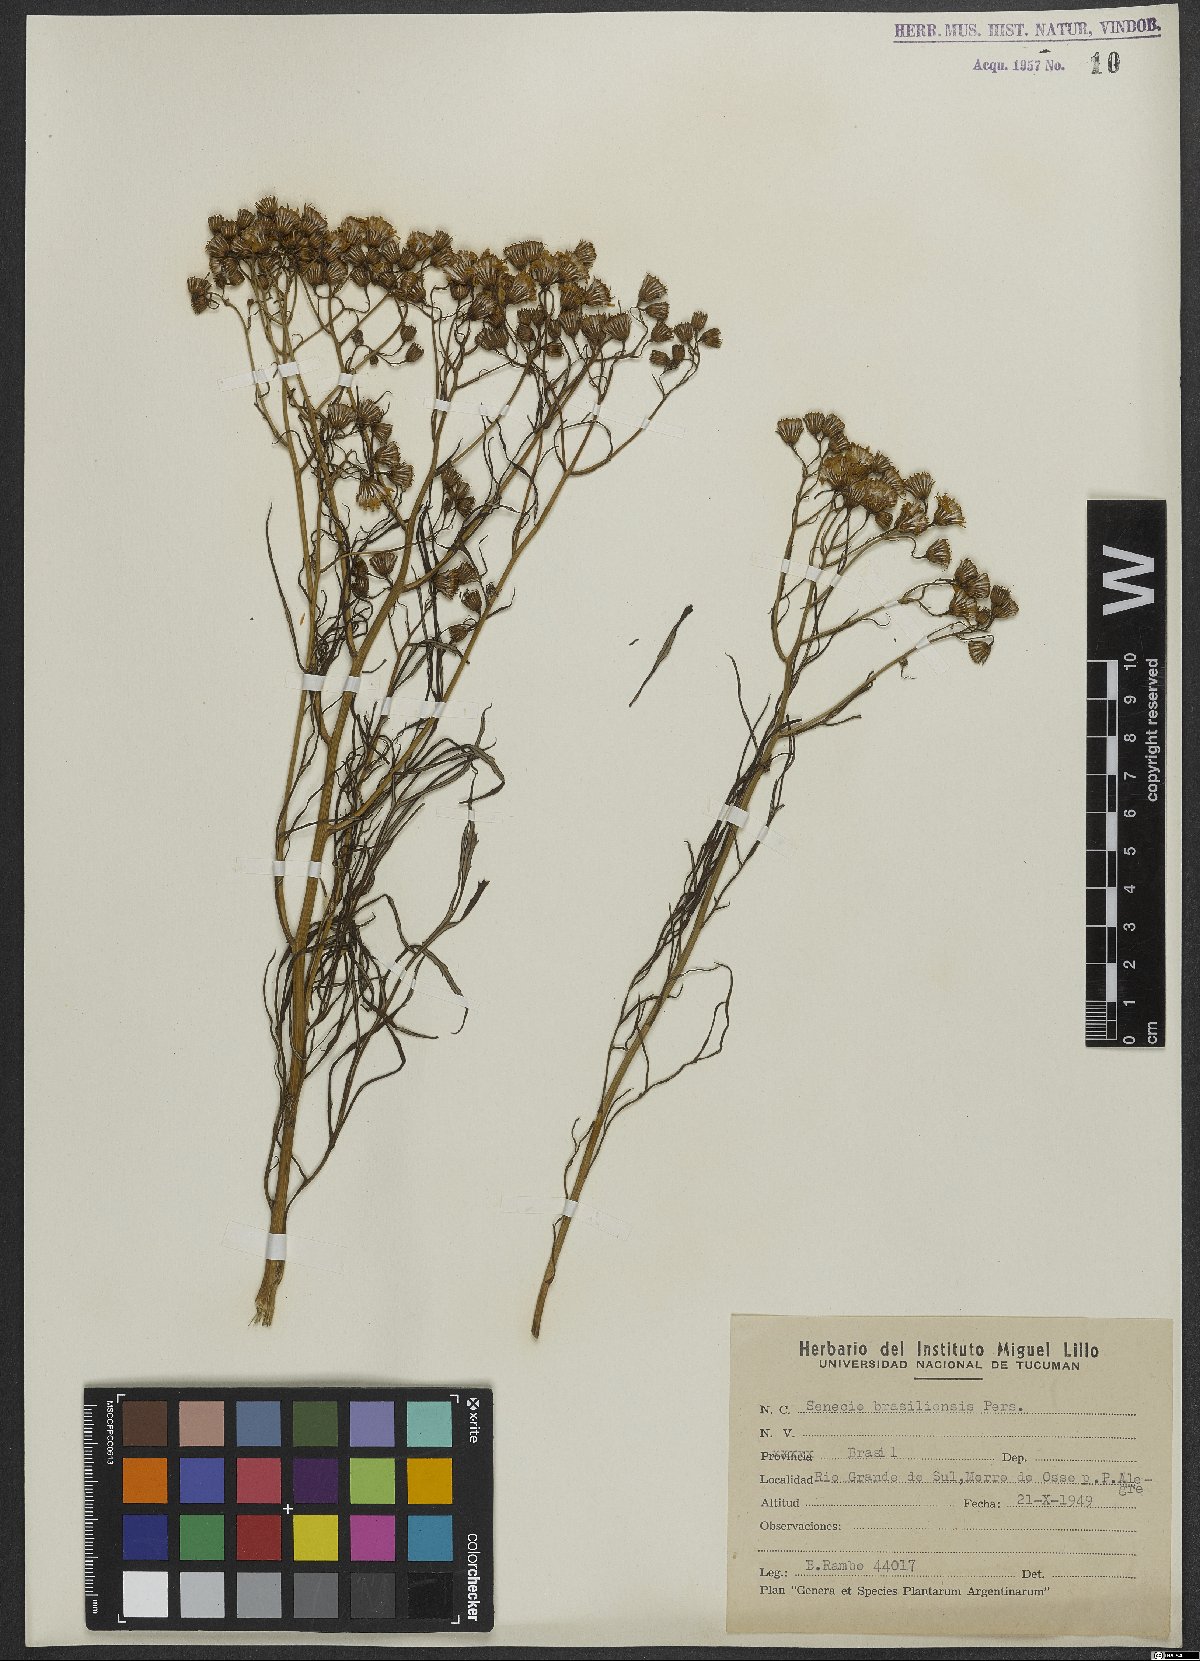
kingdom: Plantae
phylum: Tracheophyta
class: Magnoliopsida
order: Asterales
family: Asteraceae
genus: Senecio
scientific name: Senecio brasiliensis
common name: Hemp-leaf ragwort
